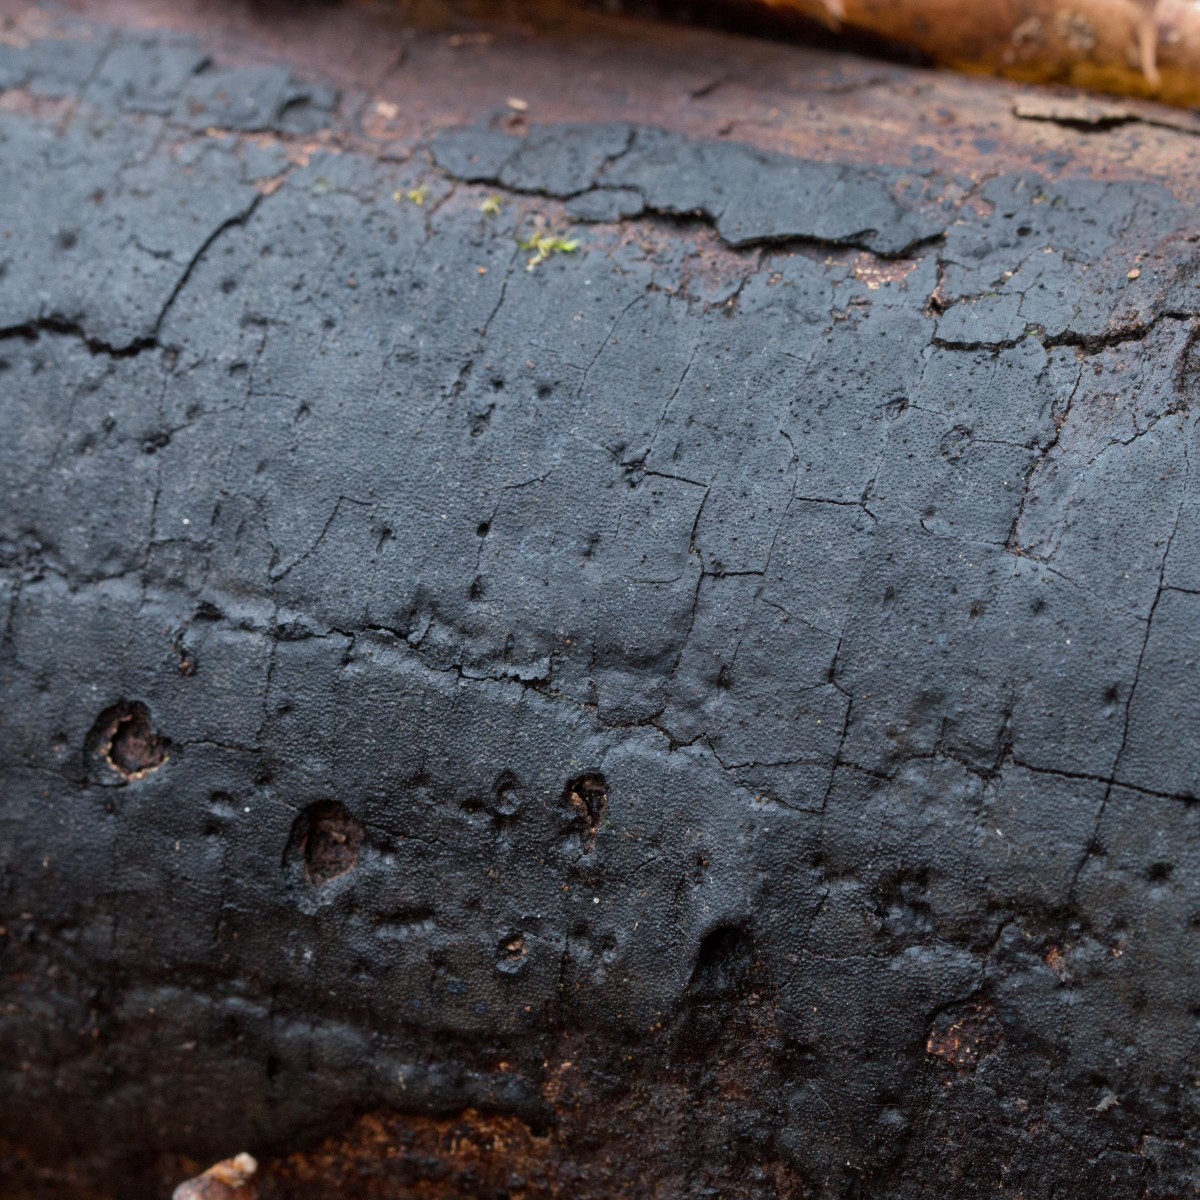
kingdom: Fungi
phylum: Ascomycota
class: Sordariomycetes
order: Xylariales
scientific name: Xylariales
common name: stødsvampordenen
